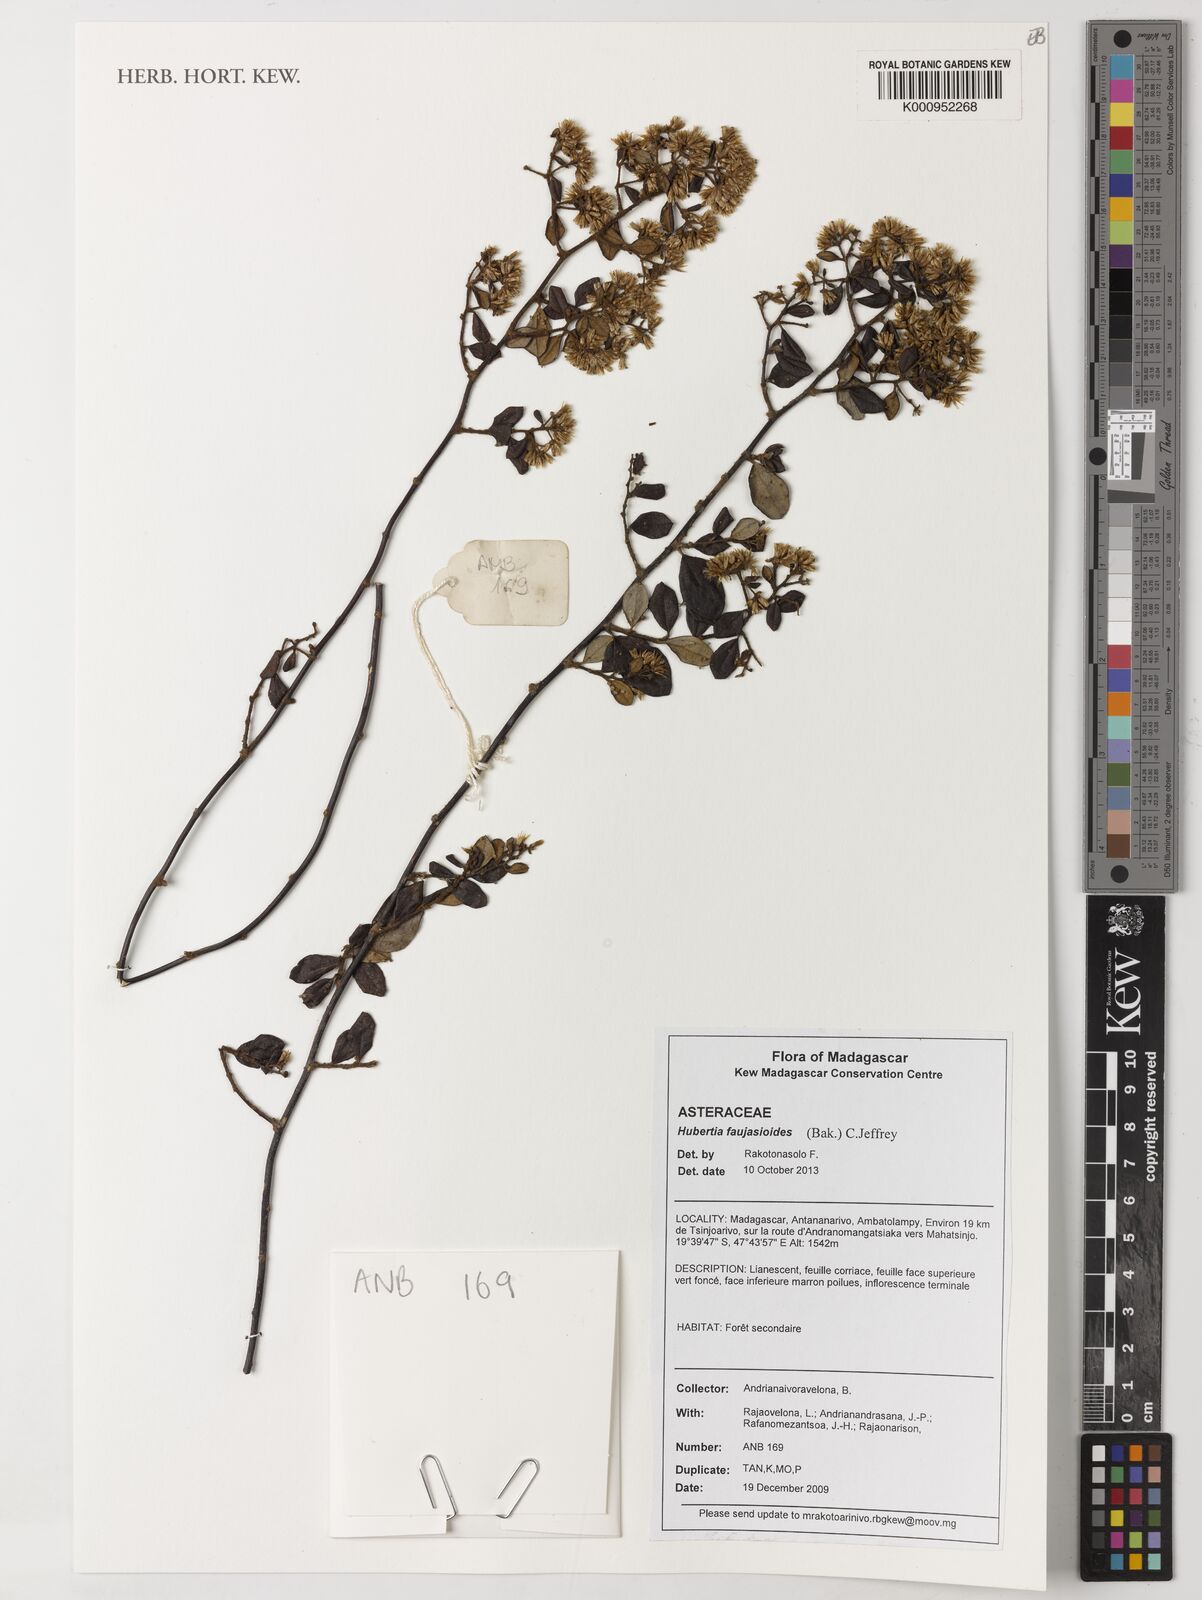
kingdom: Plantae
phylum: Tracheophyta
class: Magnoliopsida
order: Asterales
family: Asteraceae
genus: Hubertia
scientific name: Hubertia faujasioides
